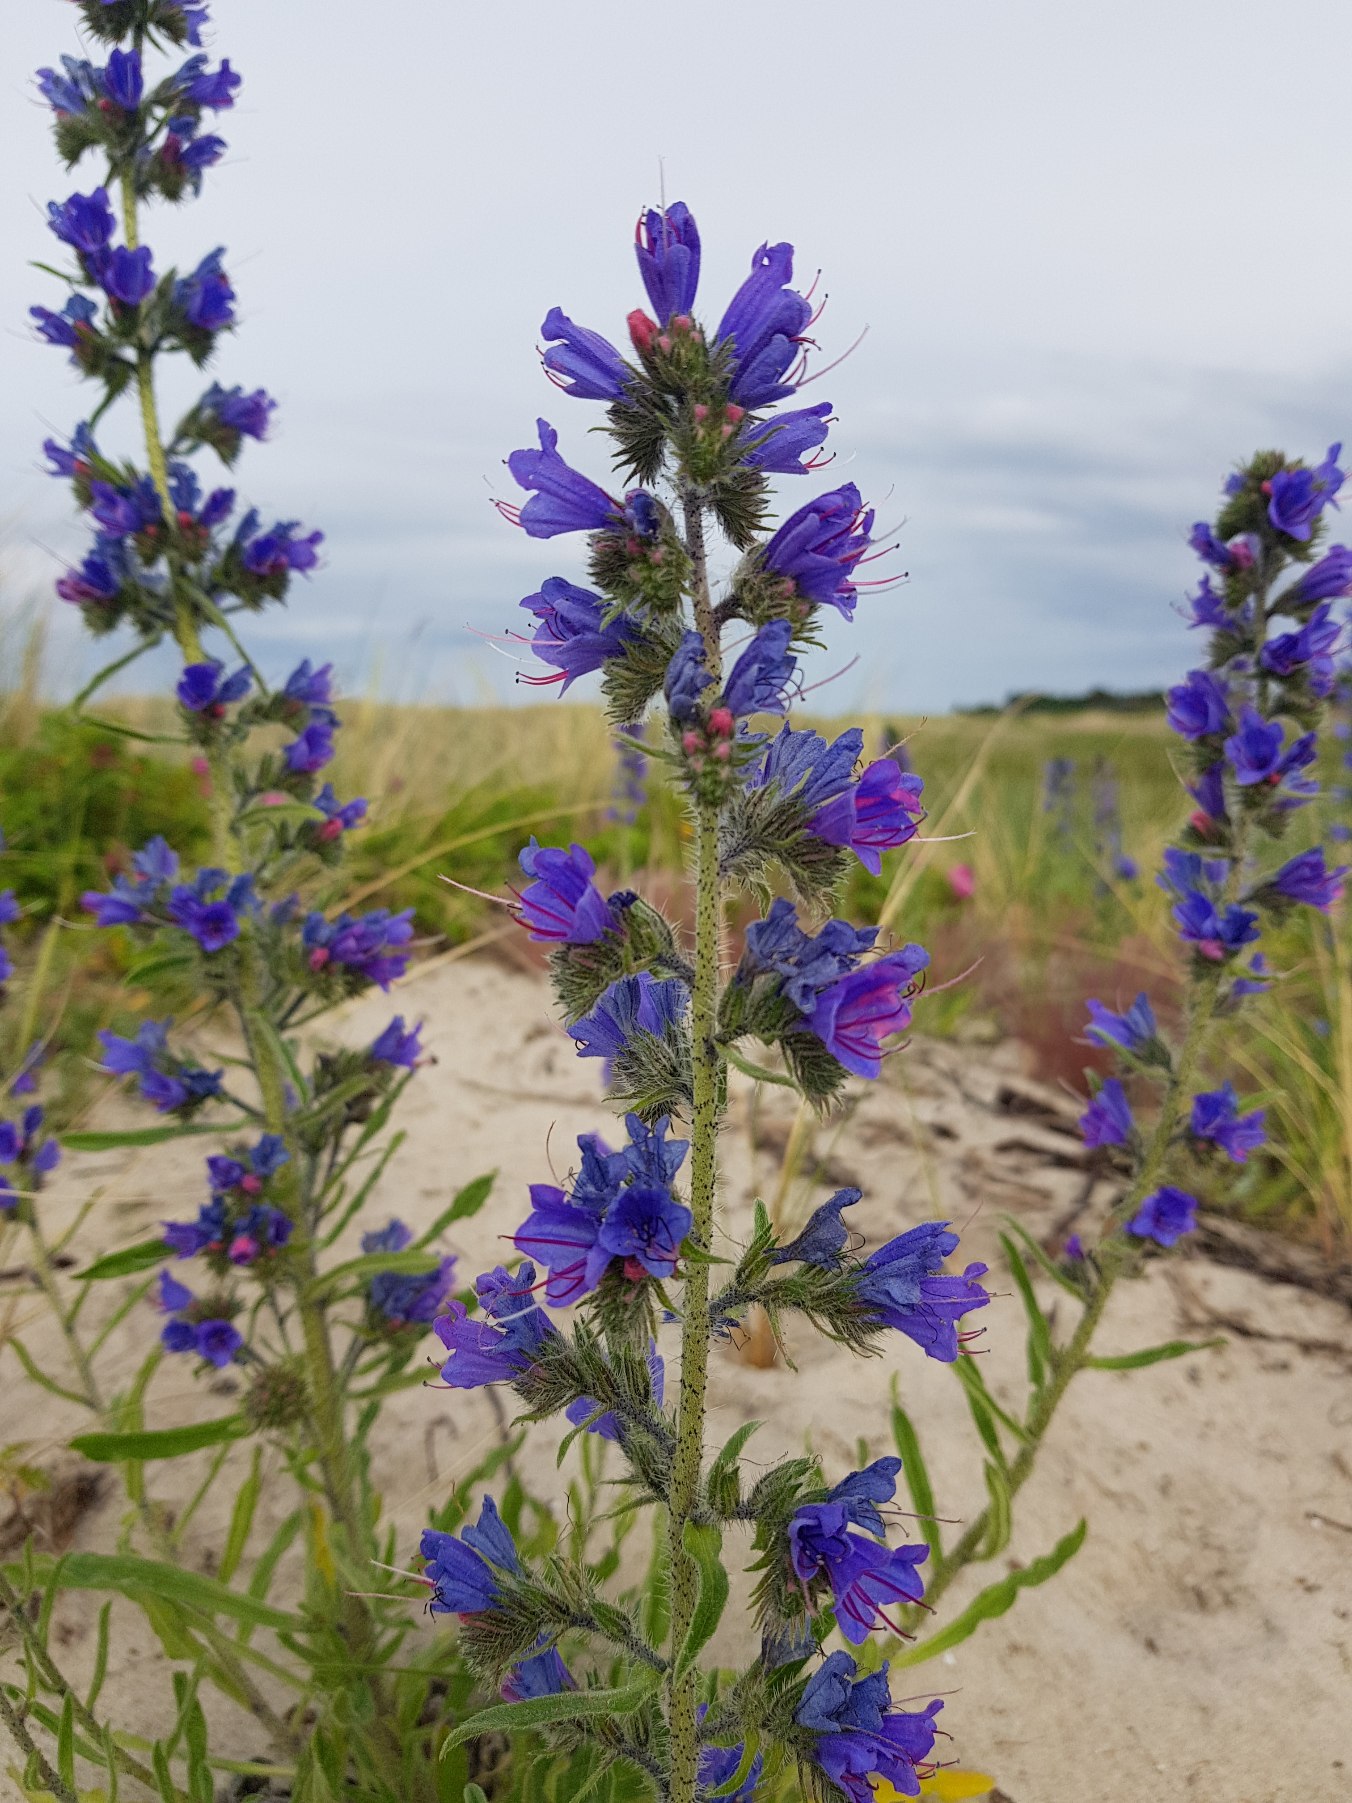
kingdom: Plantae
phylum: Tracheophyta
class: Magnoliopsida
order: Boraginales
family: Boraginaceae
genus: Echium
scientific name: Echium vulgare
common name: Slangehoved
